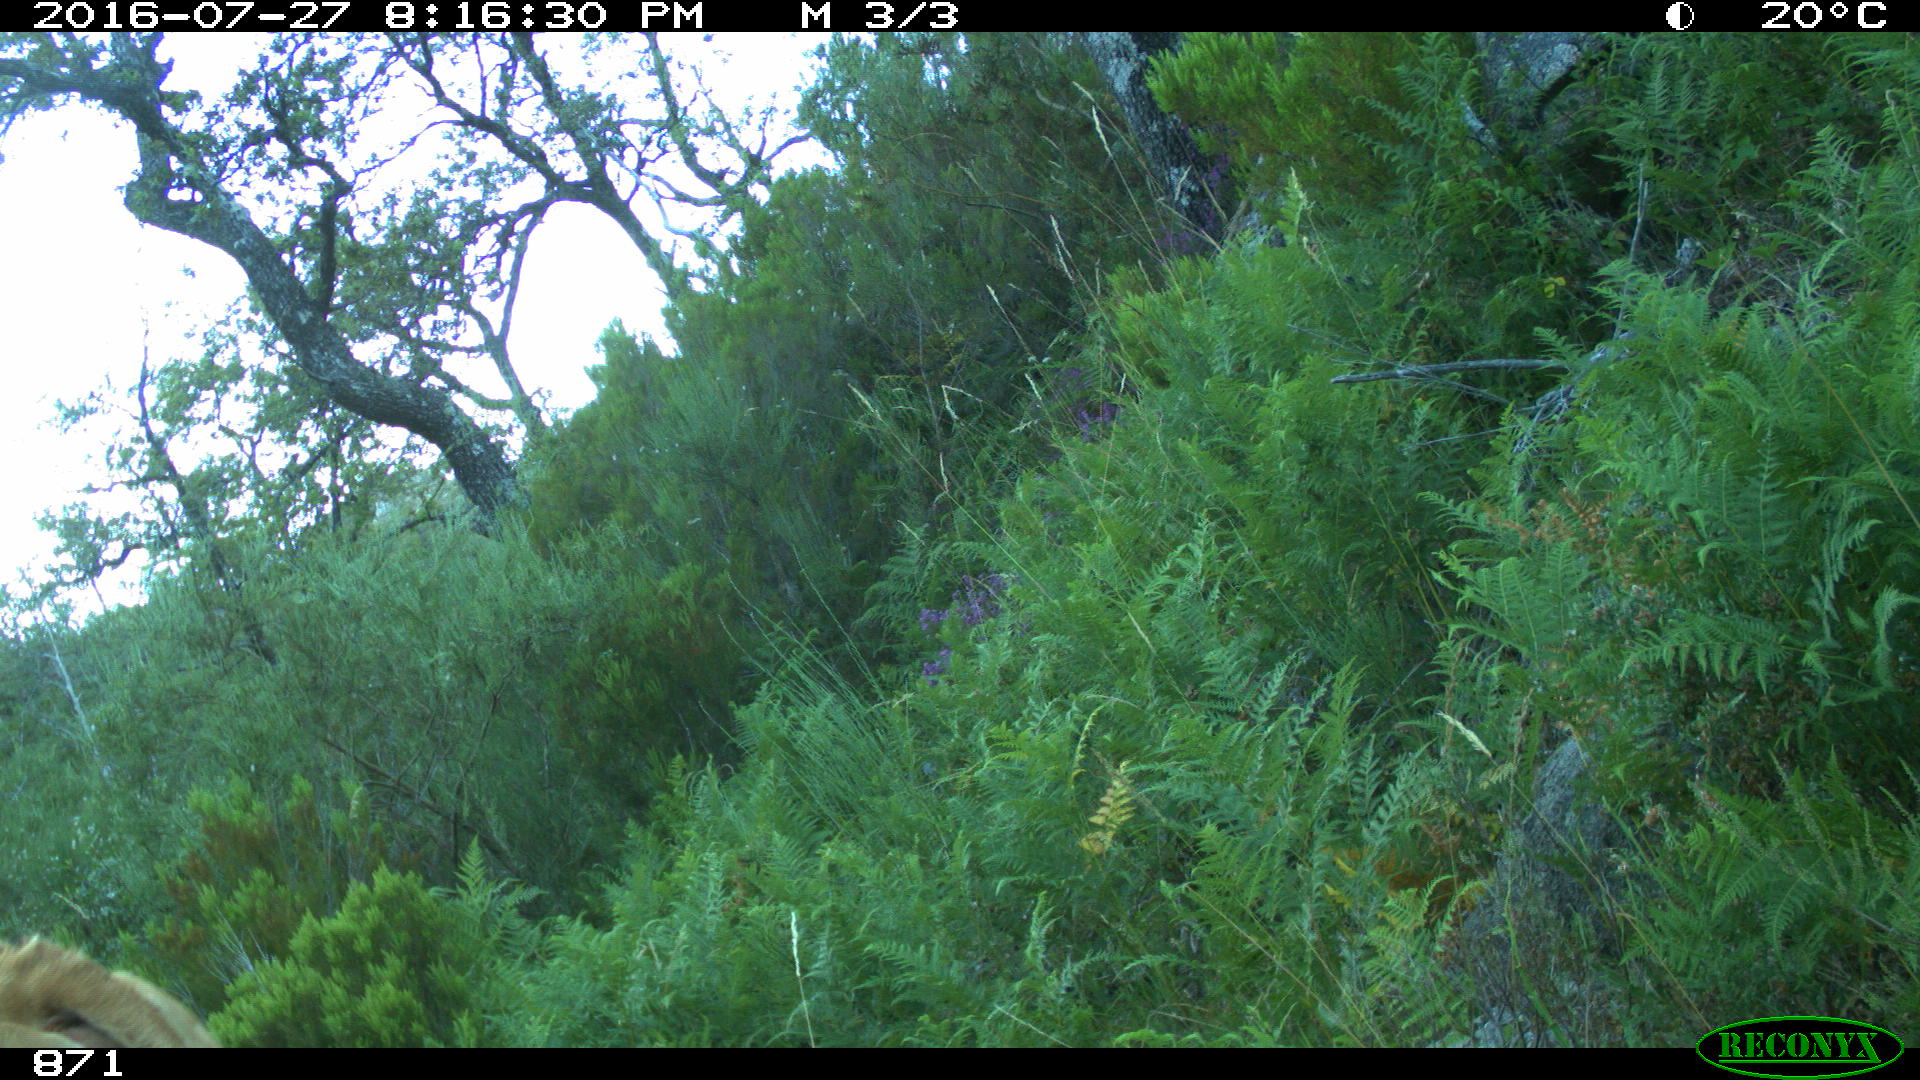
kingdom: Animalia
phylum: Chordata
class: Mammalia
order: Artiodactyla
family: Bovidae
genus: Bos
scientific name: Bos taurus
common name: Domesticated cattle
